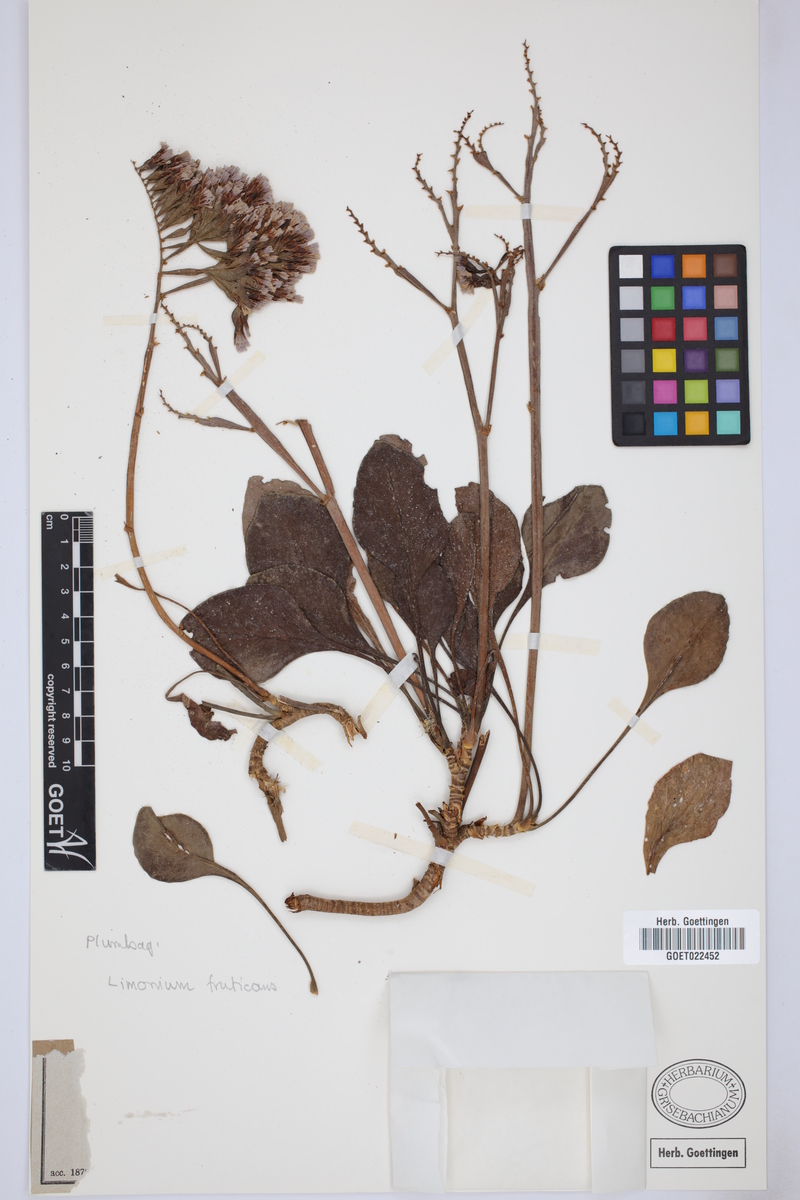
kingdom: Plantae
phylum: Tracheophyta
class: Magnoliopsida
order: Caryophyllales
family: Plumbaginaceae
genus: Limonium
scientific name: Limonium frutescens
